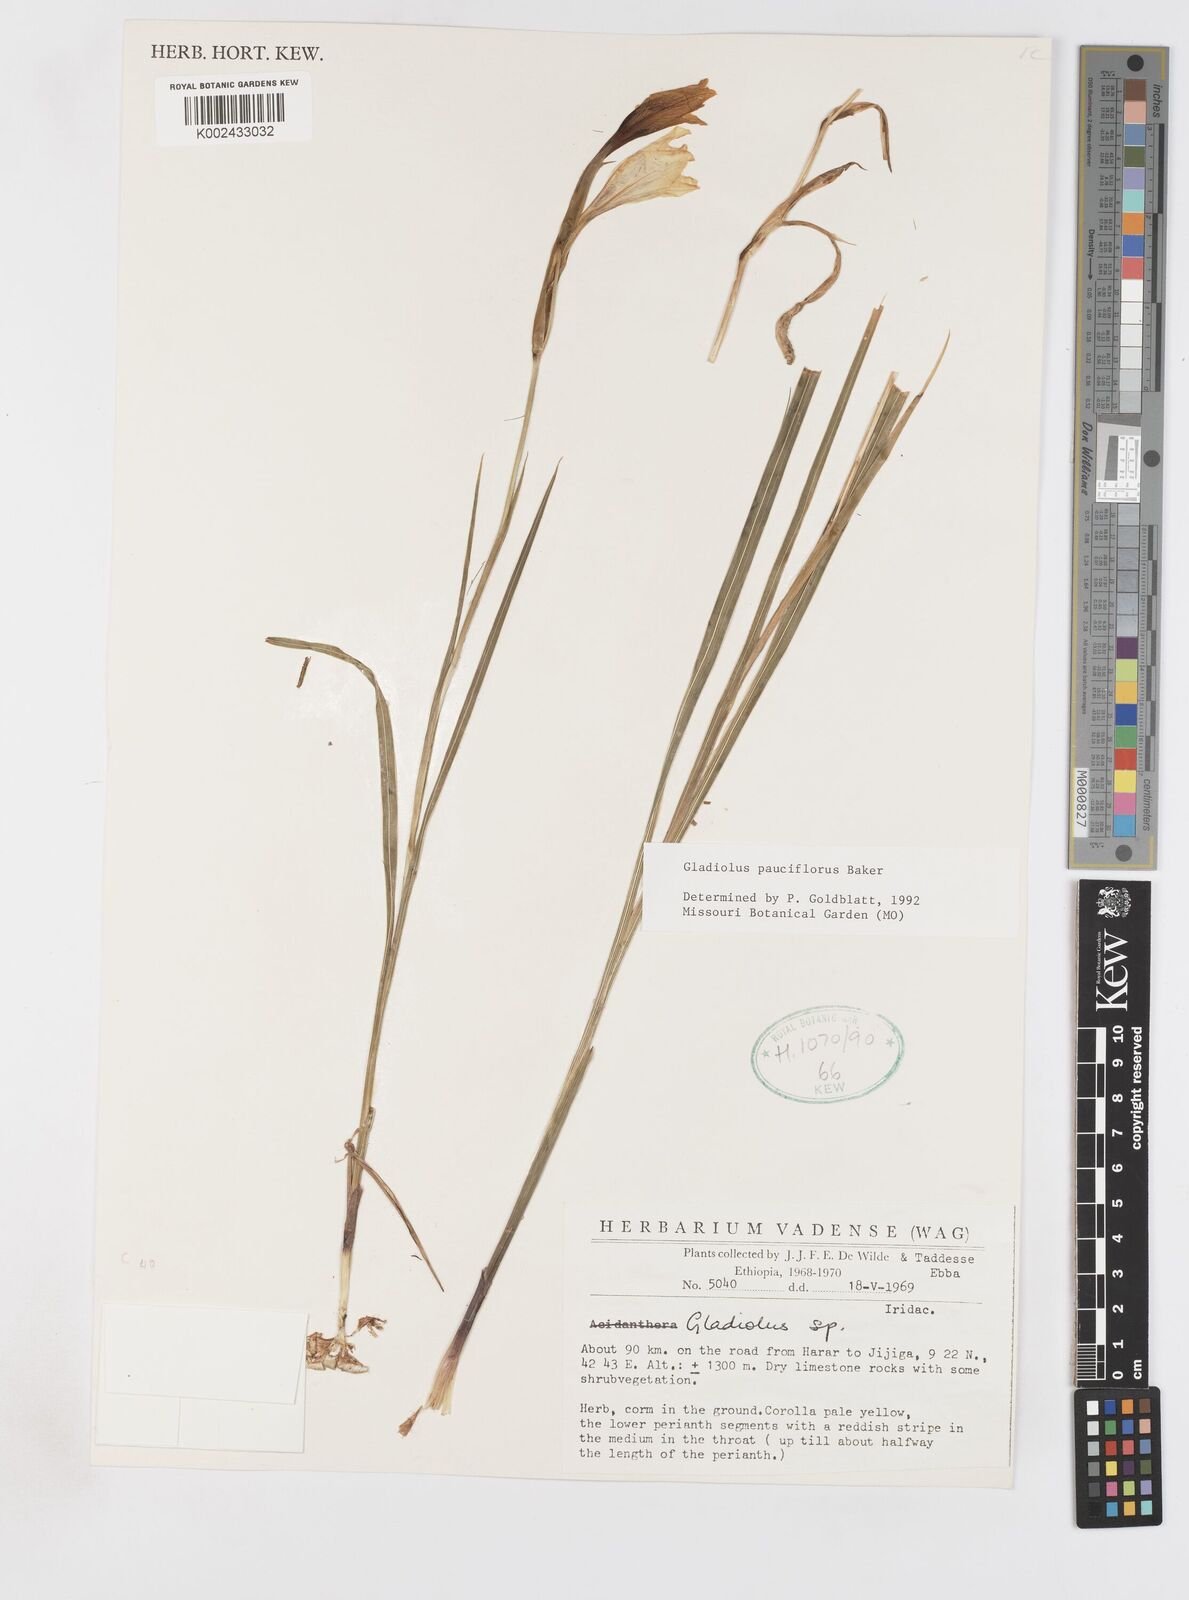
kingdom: Plantae
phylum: Tracheophyta
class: Liliopsida
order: Asparagales
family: Iridaceae
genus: Gladiolus
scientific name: Gladiolus pauciflorus
